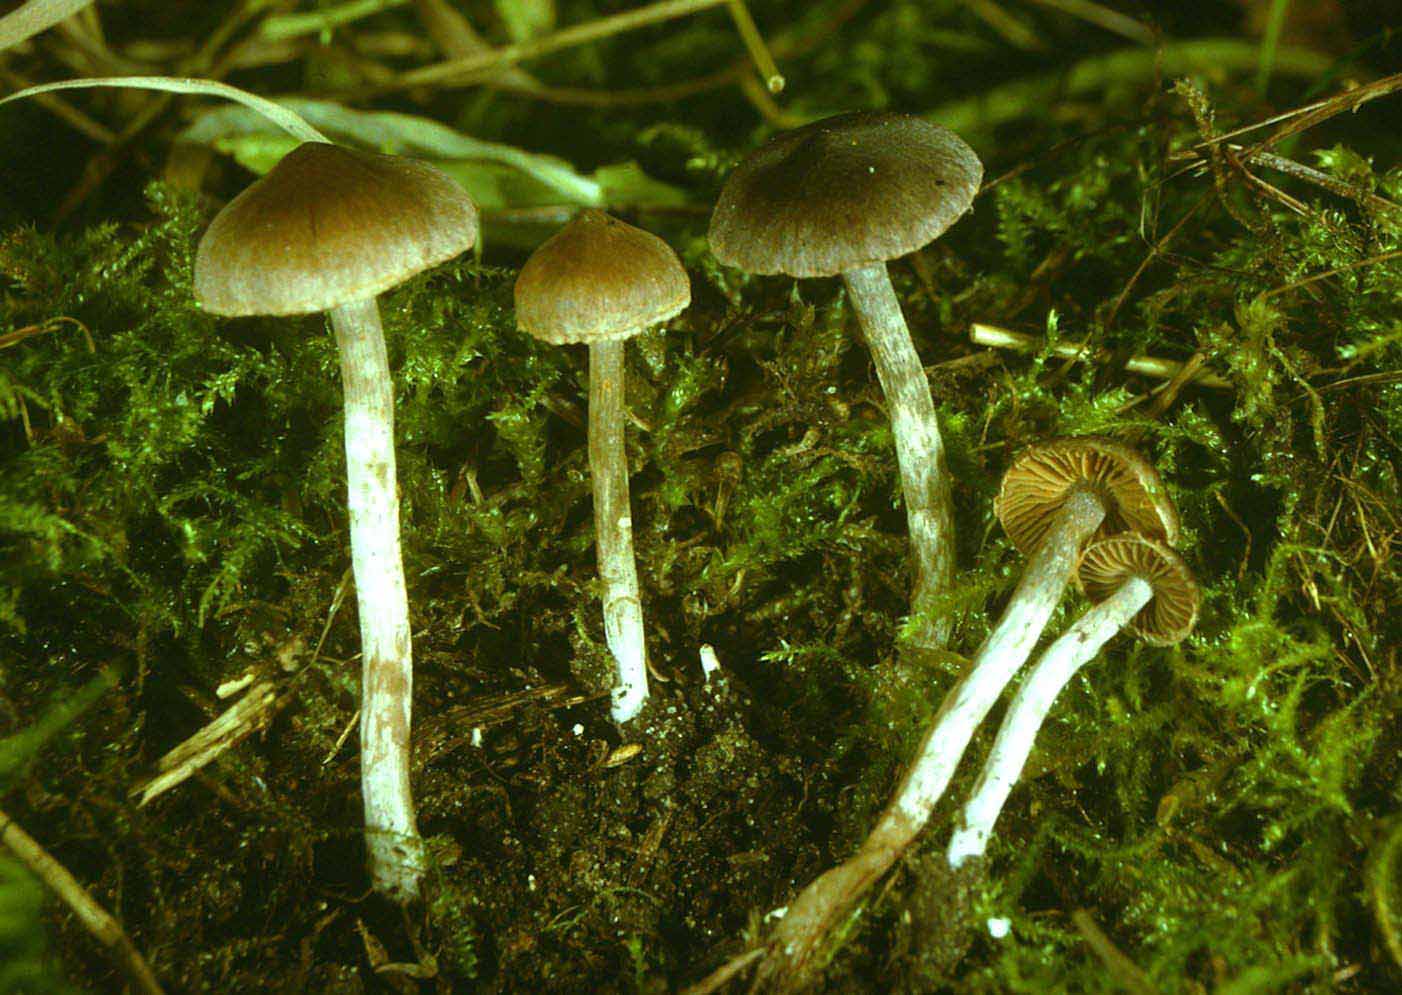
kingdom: Fungi
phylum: Basidiomycota
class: Agaricomycetes
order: Agaricales
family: Cortinariaceae
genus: Cortinarius
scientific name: Cortinarius decipiens
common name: blåsort slørhat
